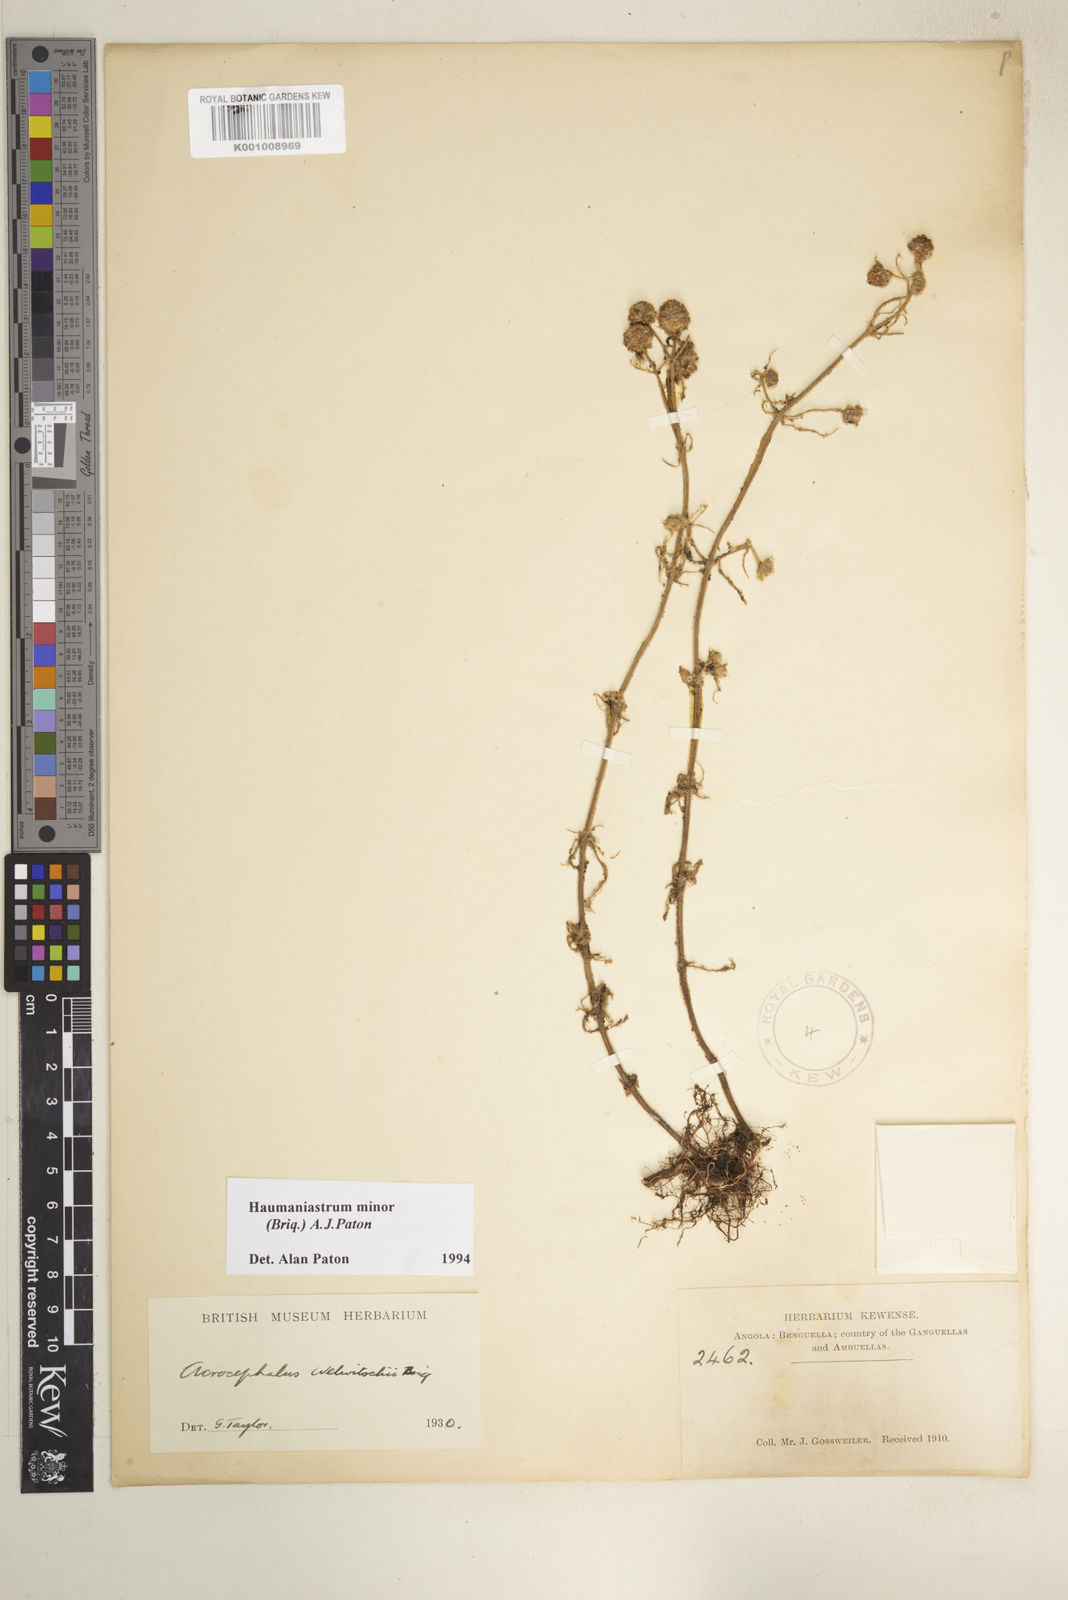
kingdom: Plantae
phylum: Tracheophyta
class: Magnoliopsida
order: Lamiales
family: Lamiaceae
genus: Haumaniastrum
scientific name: Haumaniastrum minor
